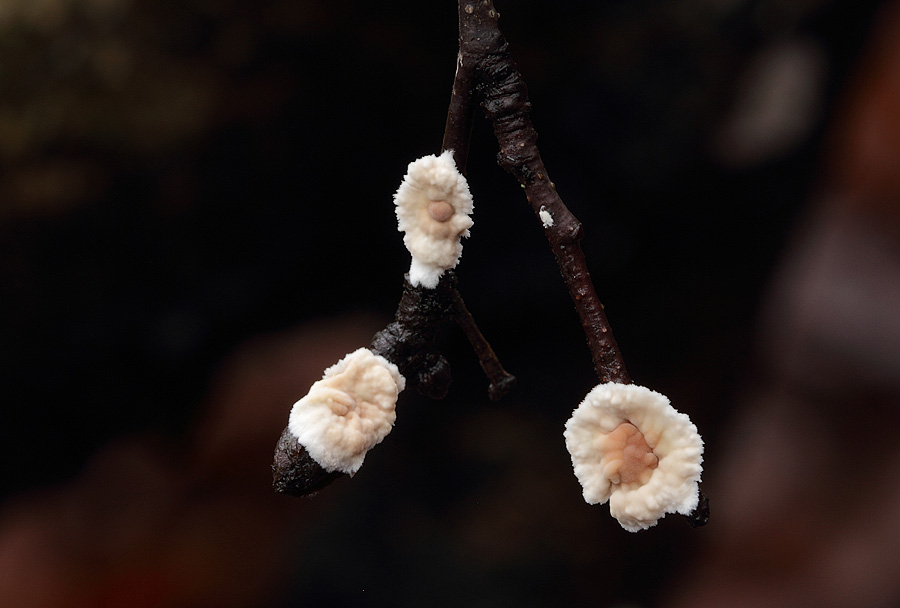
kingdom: Fungi
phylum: Basidiomycota
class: Agaricomycetes
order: Agaricales
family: Physalacriaceae
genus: Cylindrobasidium
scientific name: Cylindrobasidium evolvens
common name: sprækkehinde
